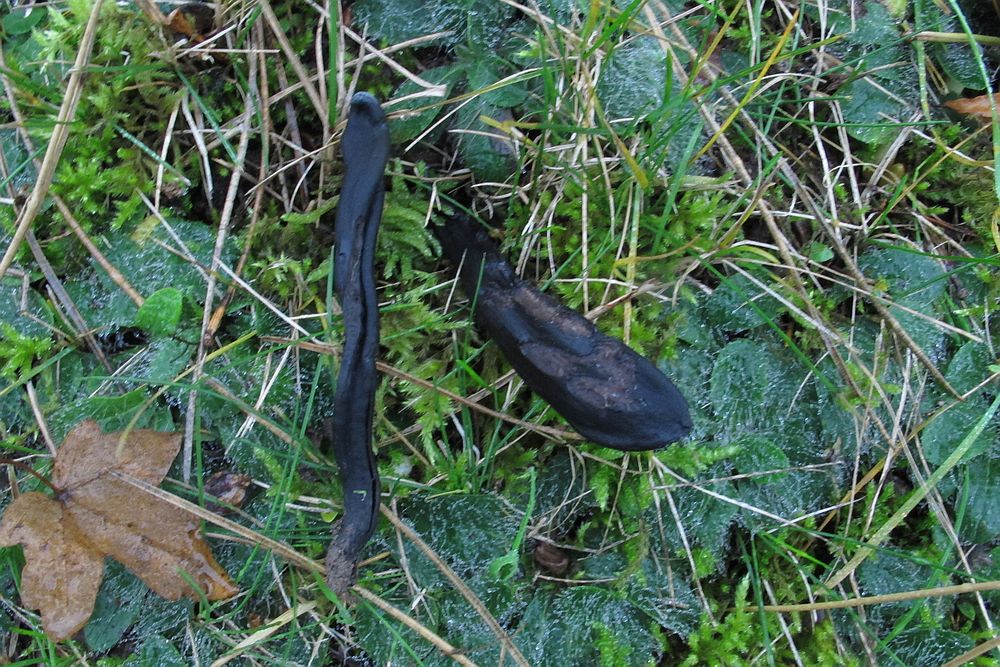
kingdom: Fungi
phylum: Ascomycota
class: Geoglossomycetes
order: Geoglossales
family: Geoglossaceae
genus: Geoglossum
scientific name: Geoglossum cookeianum
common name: bred jordtunge
